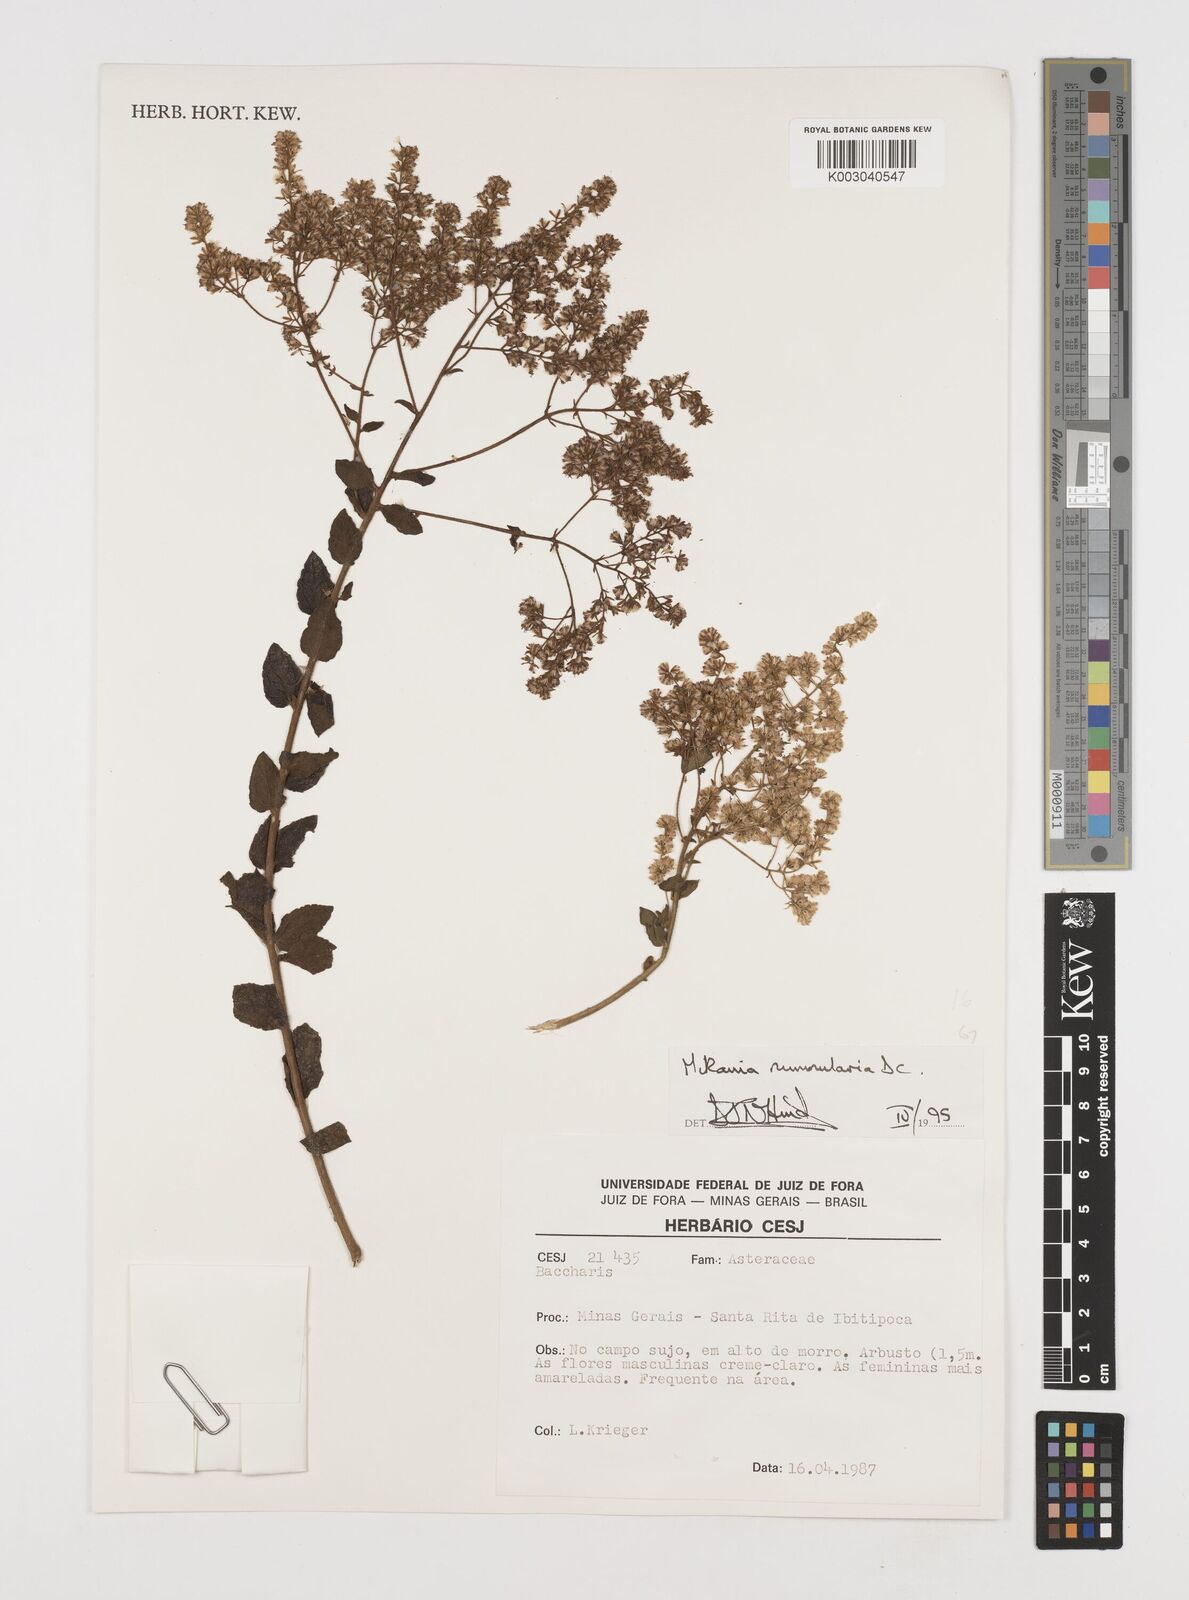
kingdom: Plantae
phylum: Tracheophyta
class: Magnoliopsida
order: Asterales
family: Asteraceae
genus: Mikania
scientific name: Mikania nummularia
